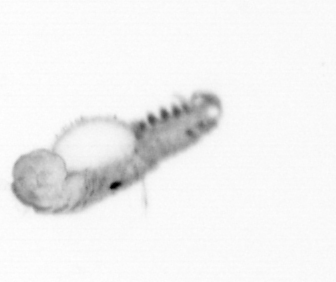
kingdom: Animalia
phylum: Annelida
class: Polychaeta
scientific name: Polychaeta
